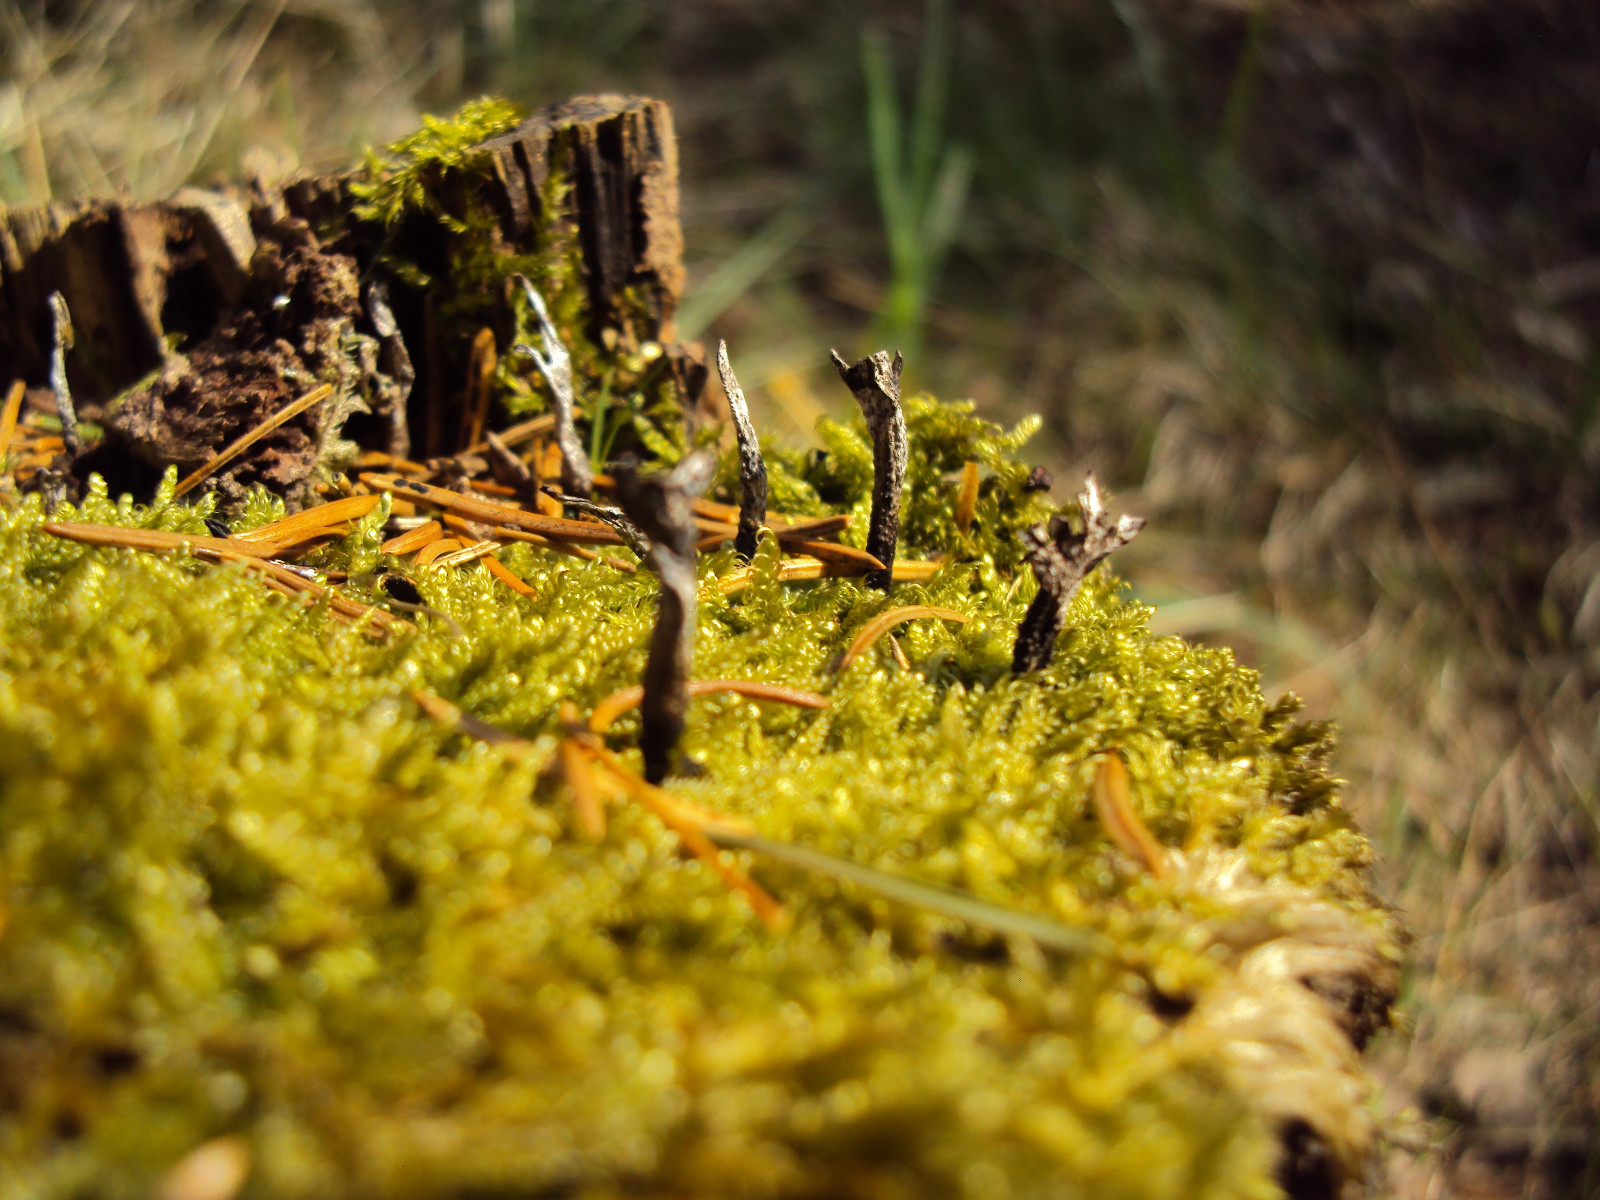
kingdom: Fungi
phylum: Ascomycota
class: Sordariomycetes
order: Xylariales
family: Xylariaceae
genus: Xylaria
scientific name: Xylaria hypoxylon
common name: grenet stødsvamp
